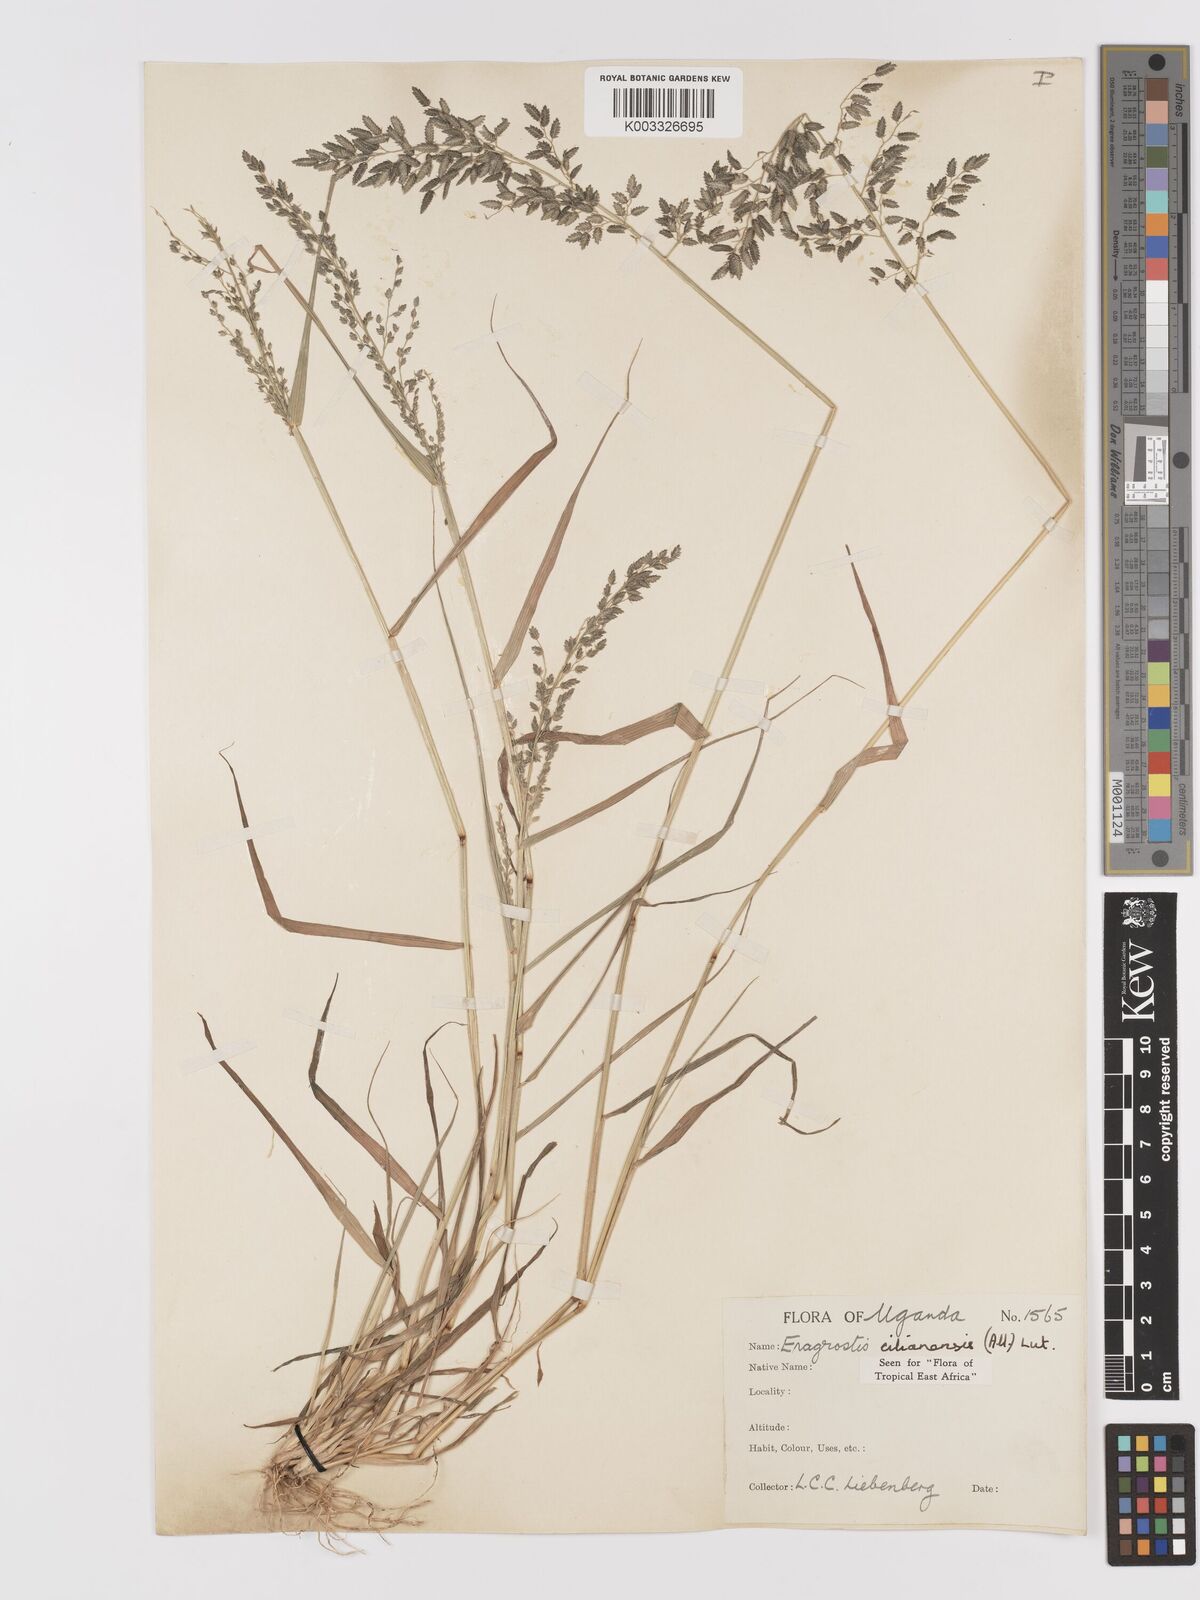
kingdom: Plantae
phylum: Tracheophyta
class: Liliopsida
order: Poales
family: Poaceae
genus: Eragrostis
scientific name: Eragrostis cilianensis
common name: Stinkgrass
